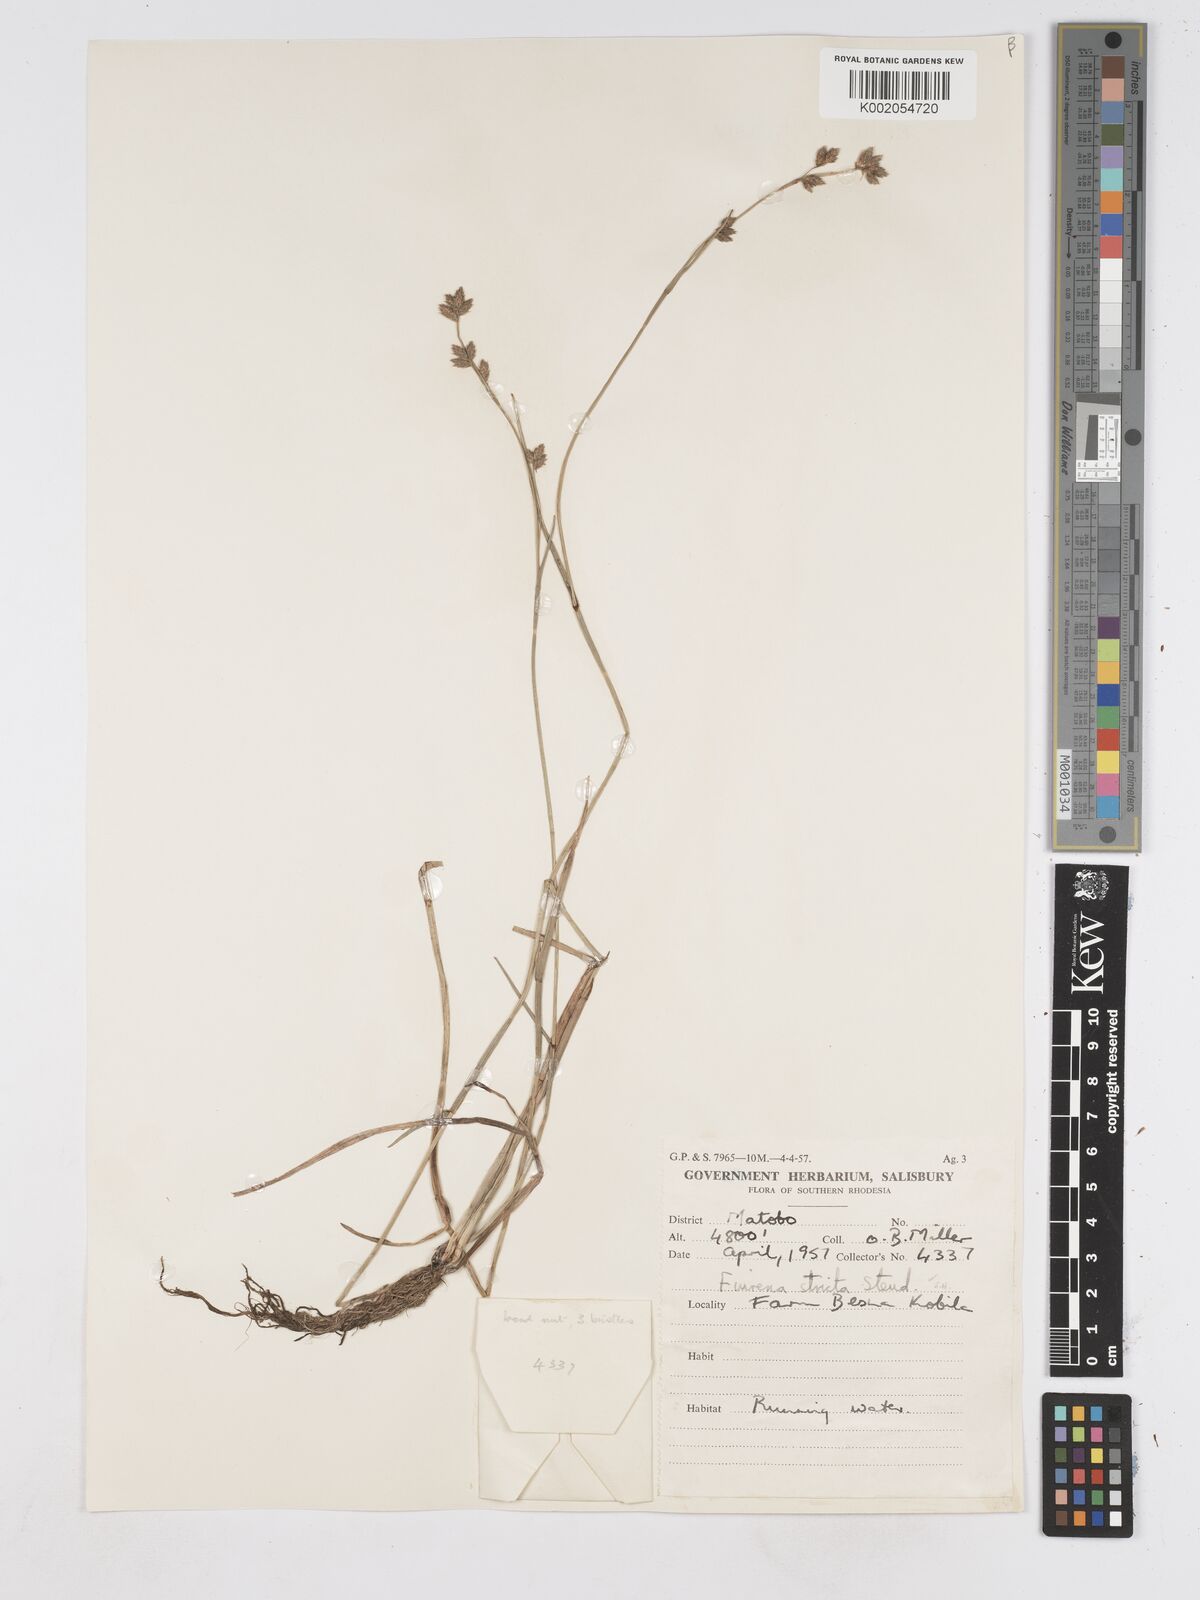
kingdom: Plantae
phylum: Tracheophyta
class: Liliopsida
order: Poales
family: Cyperaceae
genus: Fuirena
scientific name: Fuirena stricta
